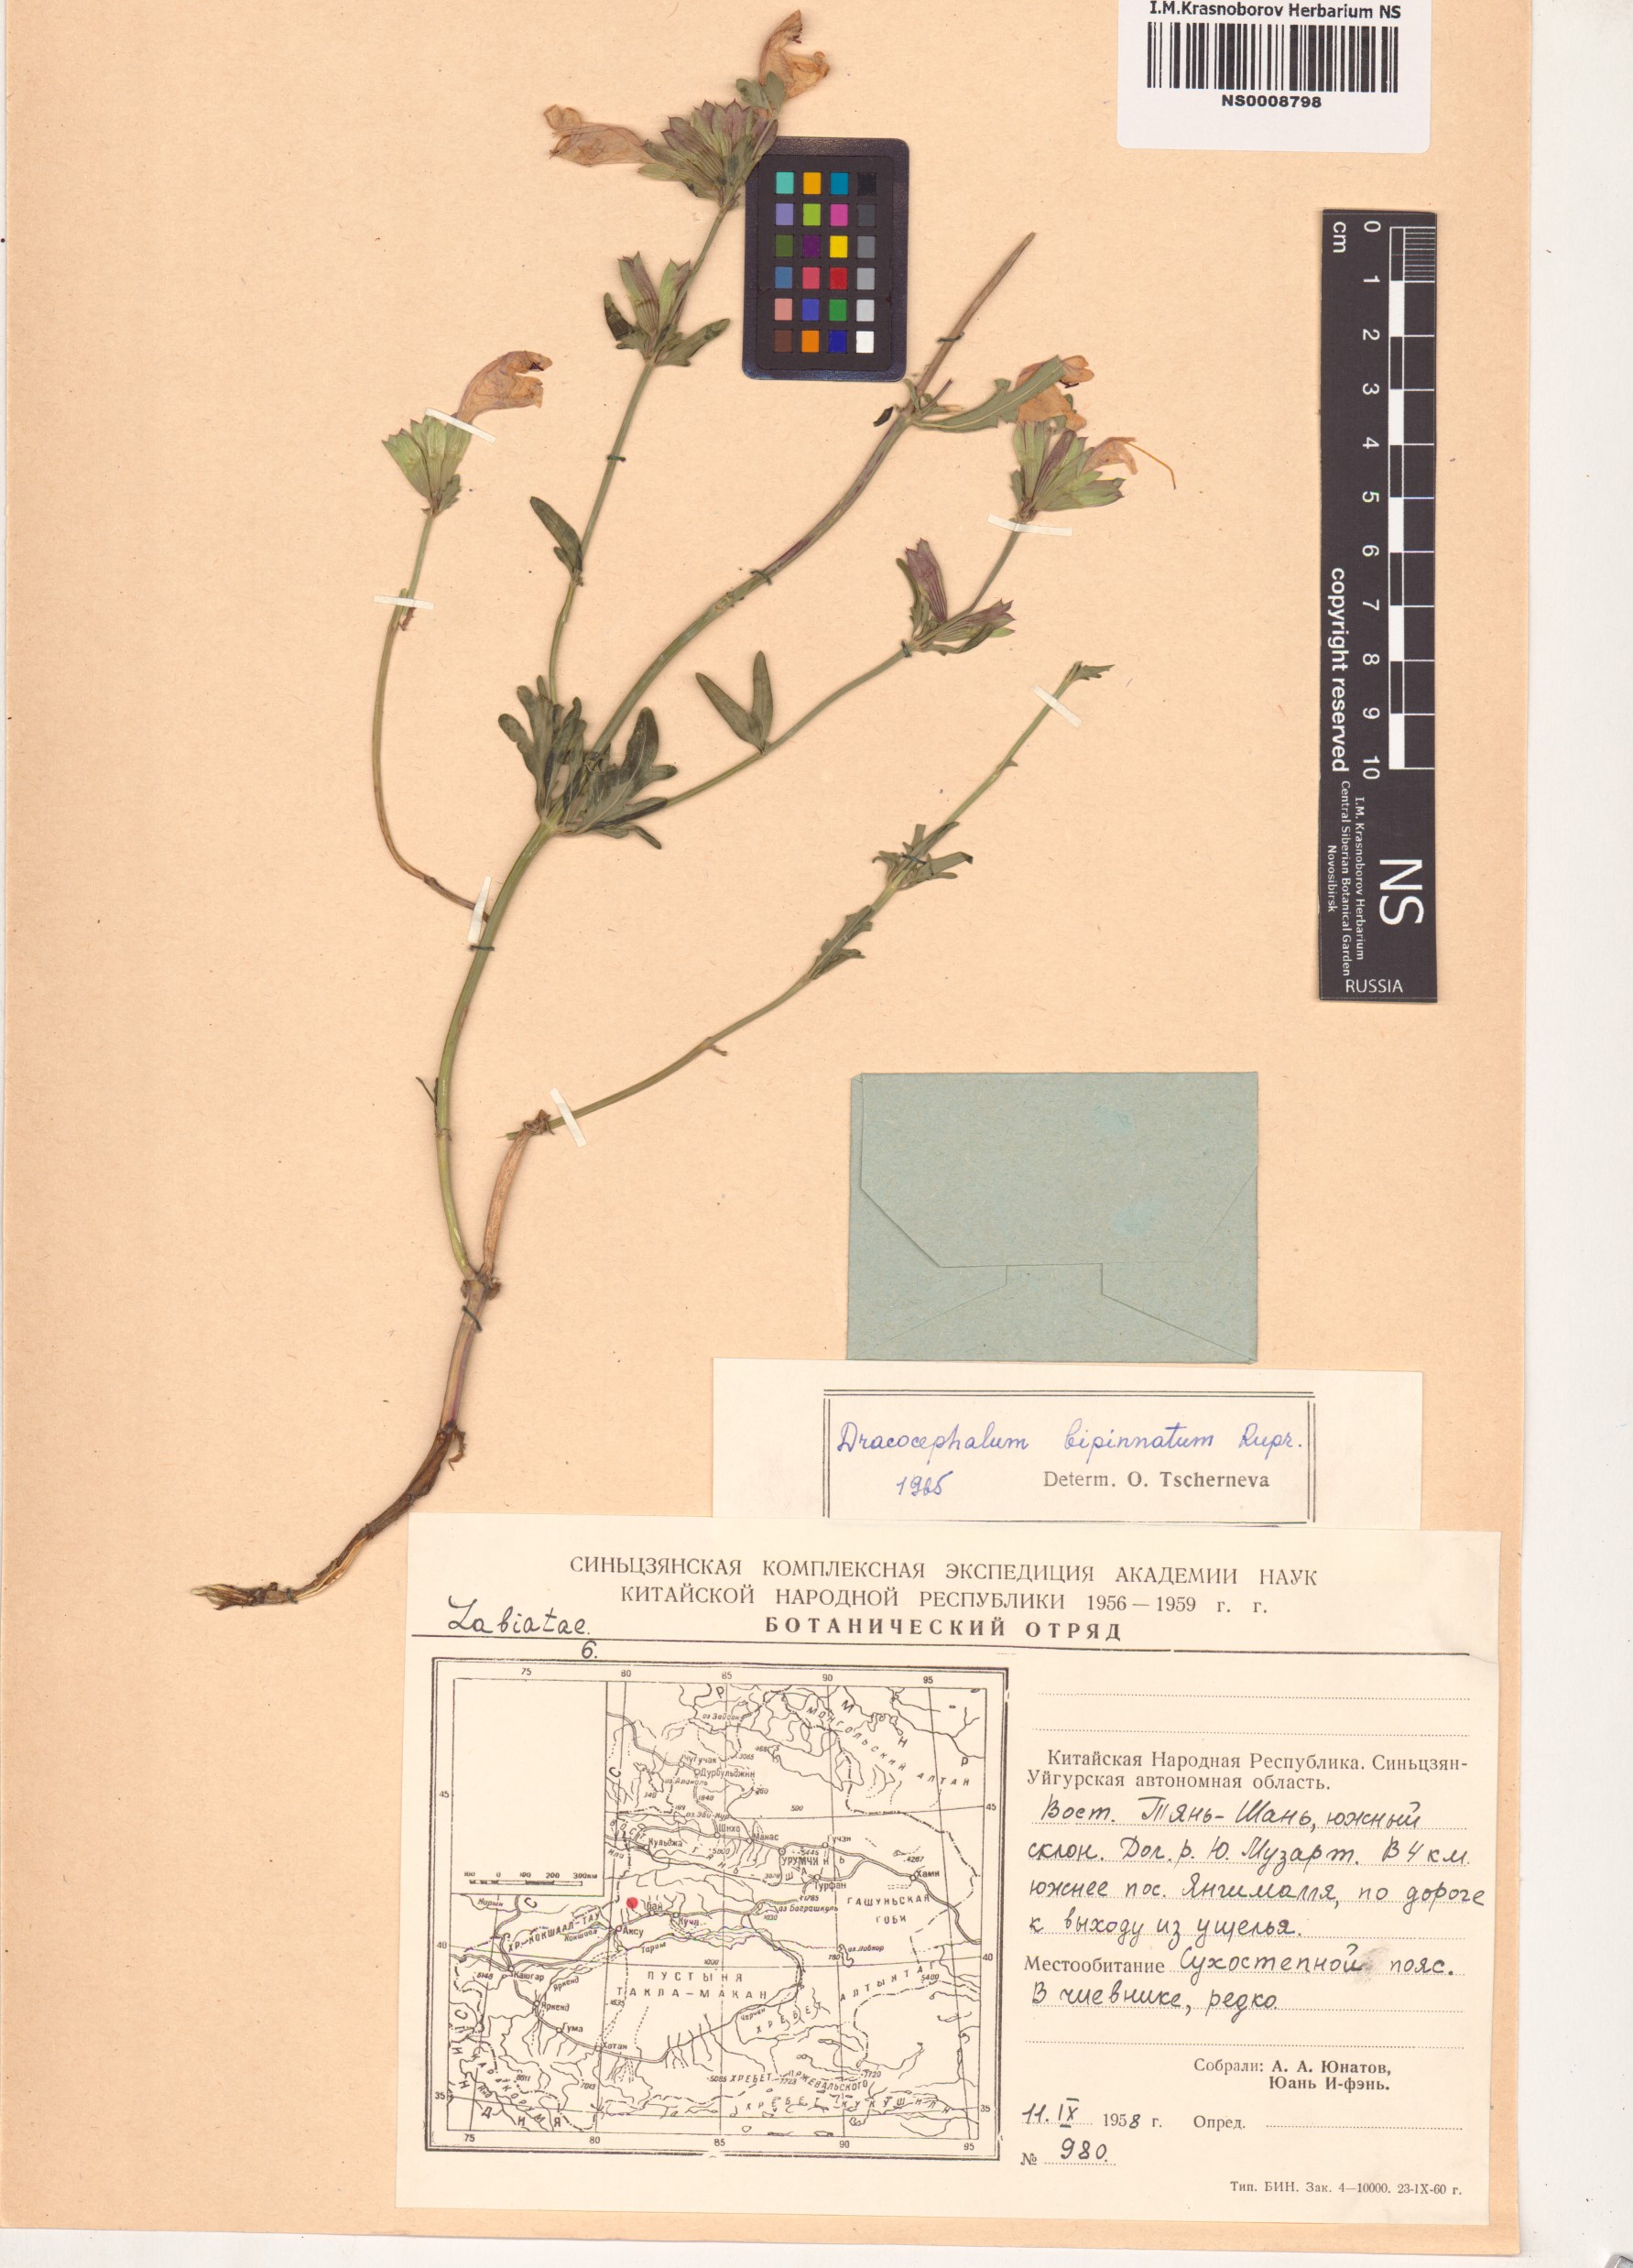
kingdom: Plantae
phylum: Tracheophyta
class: Magnoliopsida
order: Lamiales
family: Lamiaceae
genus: Dracocephalum
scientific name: Dracocephalum bipinnatum
